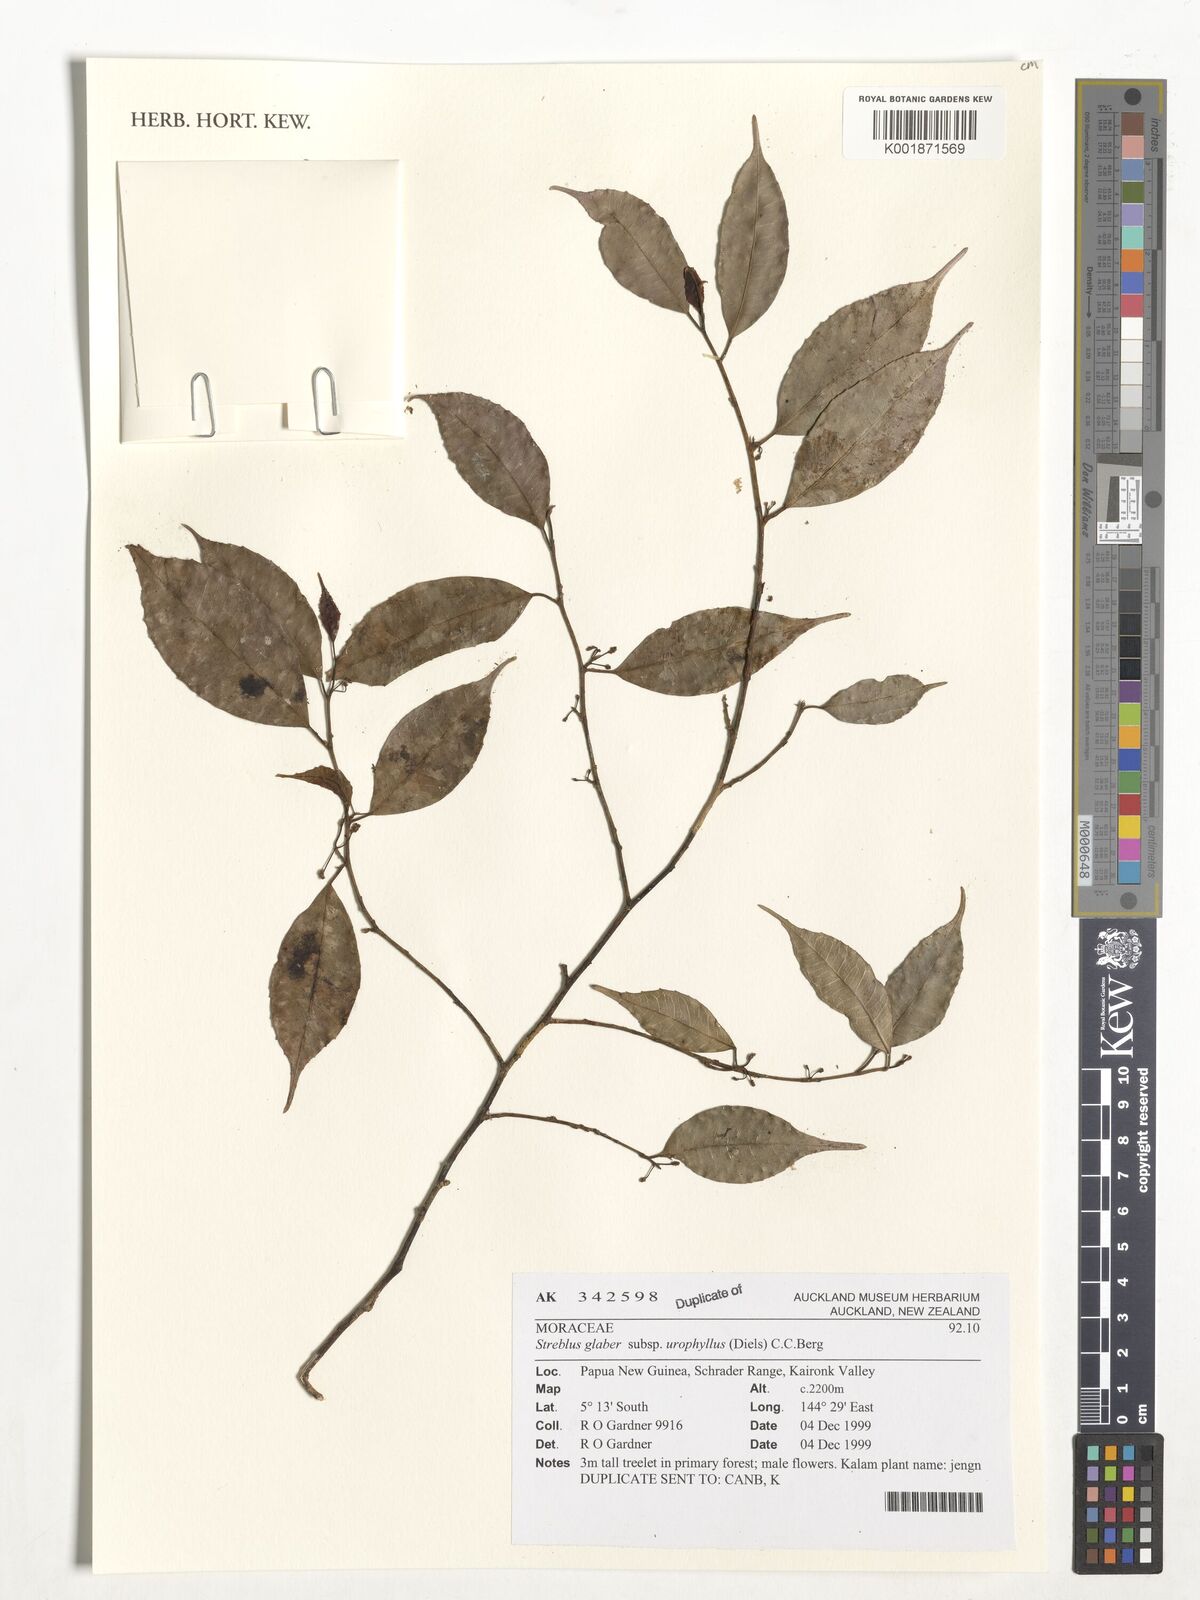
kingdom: Plantae
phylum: Tracheophyta
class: Magnoliopsida
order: Rosales
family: Moraceae
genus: Paratrophis
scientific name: Paratrophis glabra
